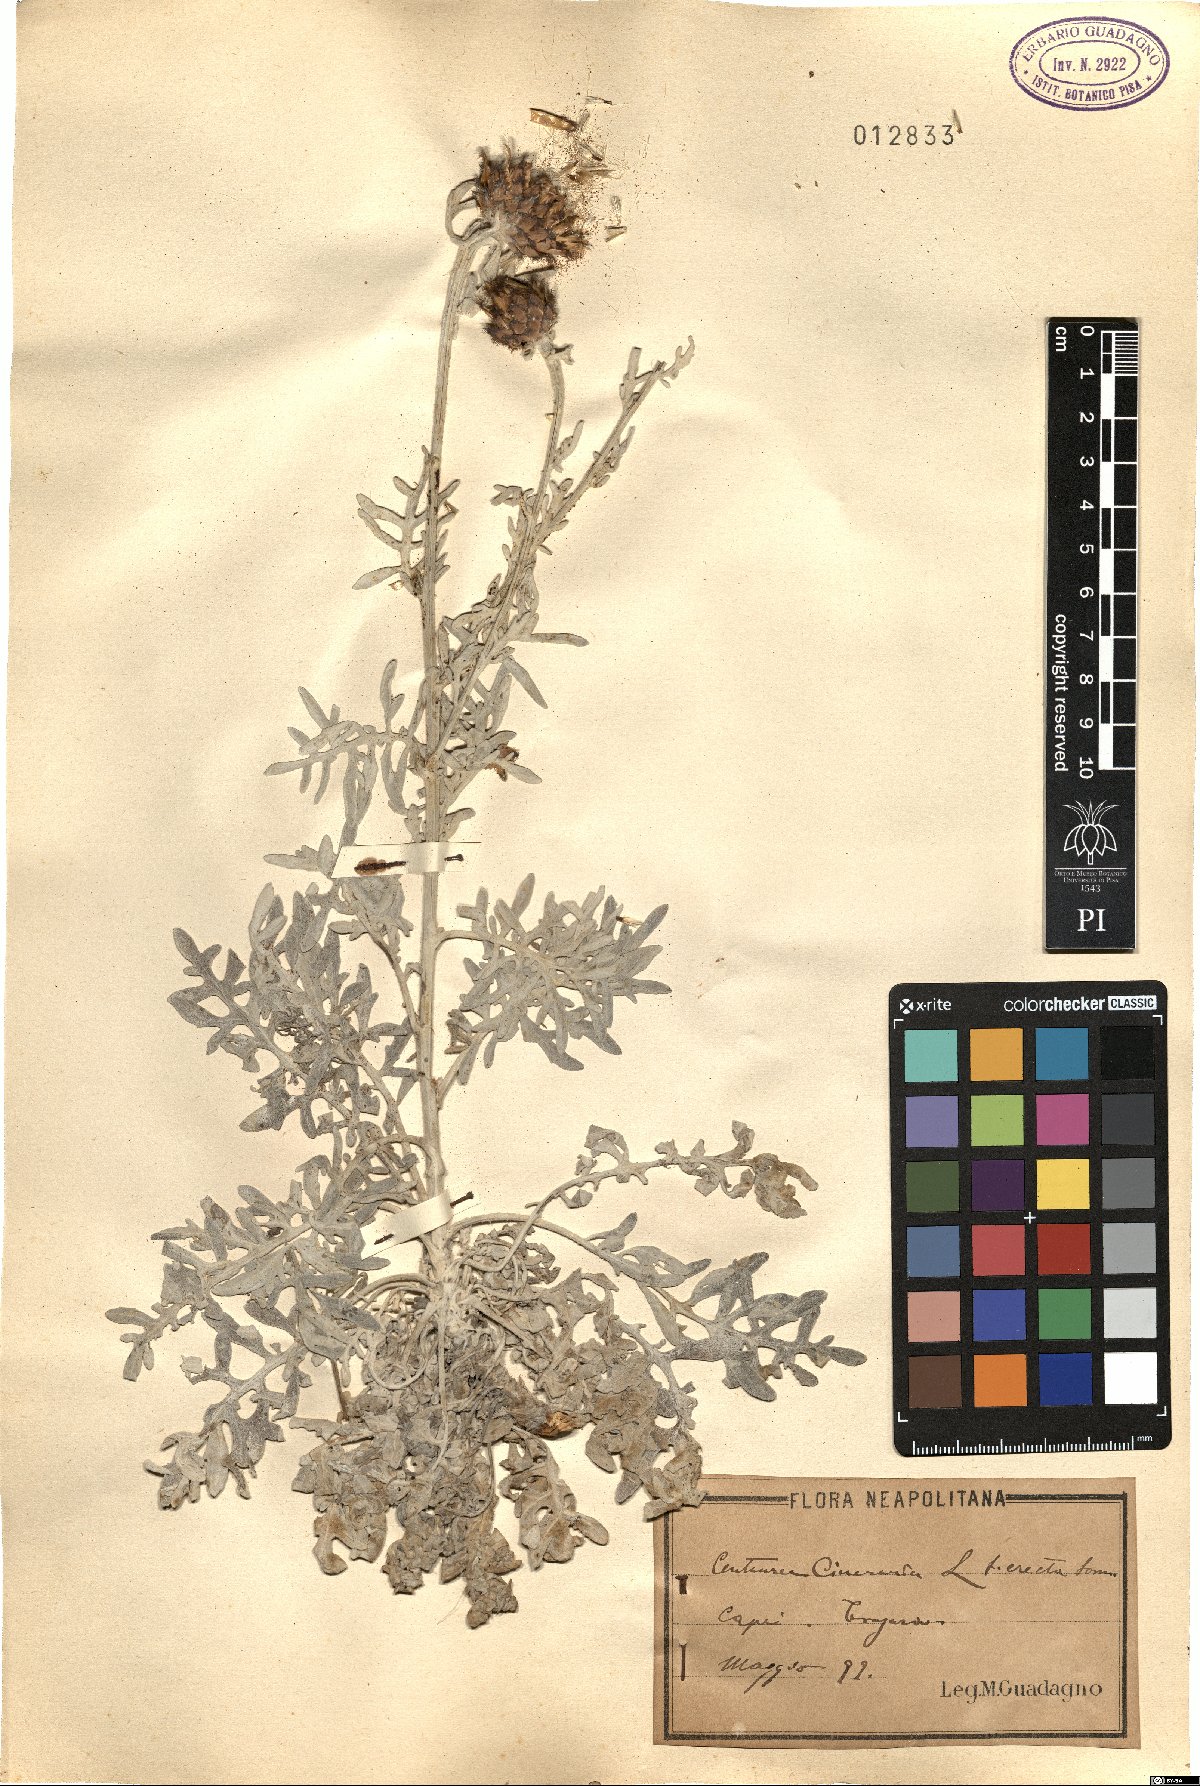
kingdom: Plantae
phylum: Tracheophyta
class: Magnoliopsida
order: Asterales
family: Asteraceae
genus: Centaurea
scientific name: Centaurea cineraria
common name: Dusty miller
